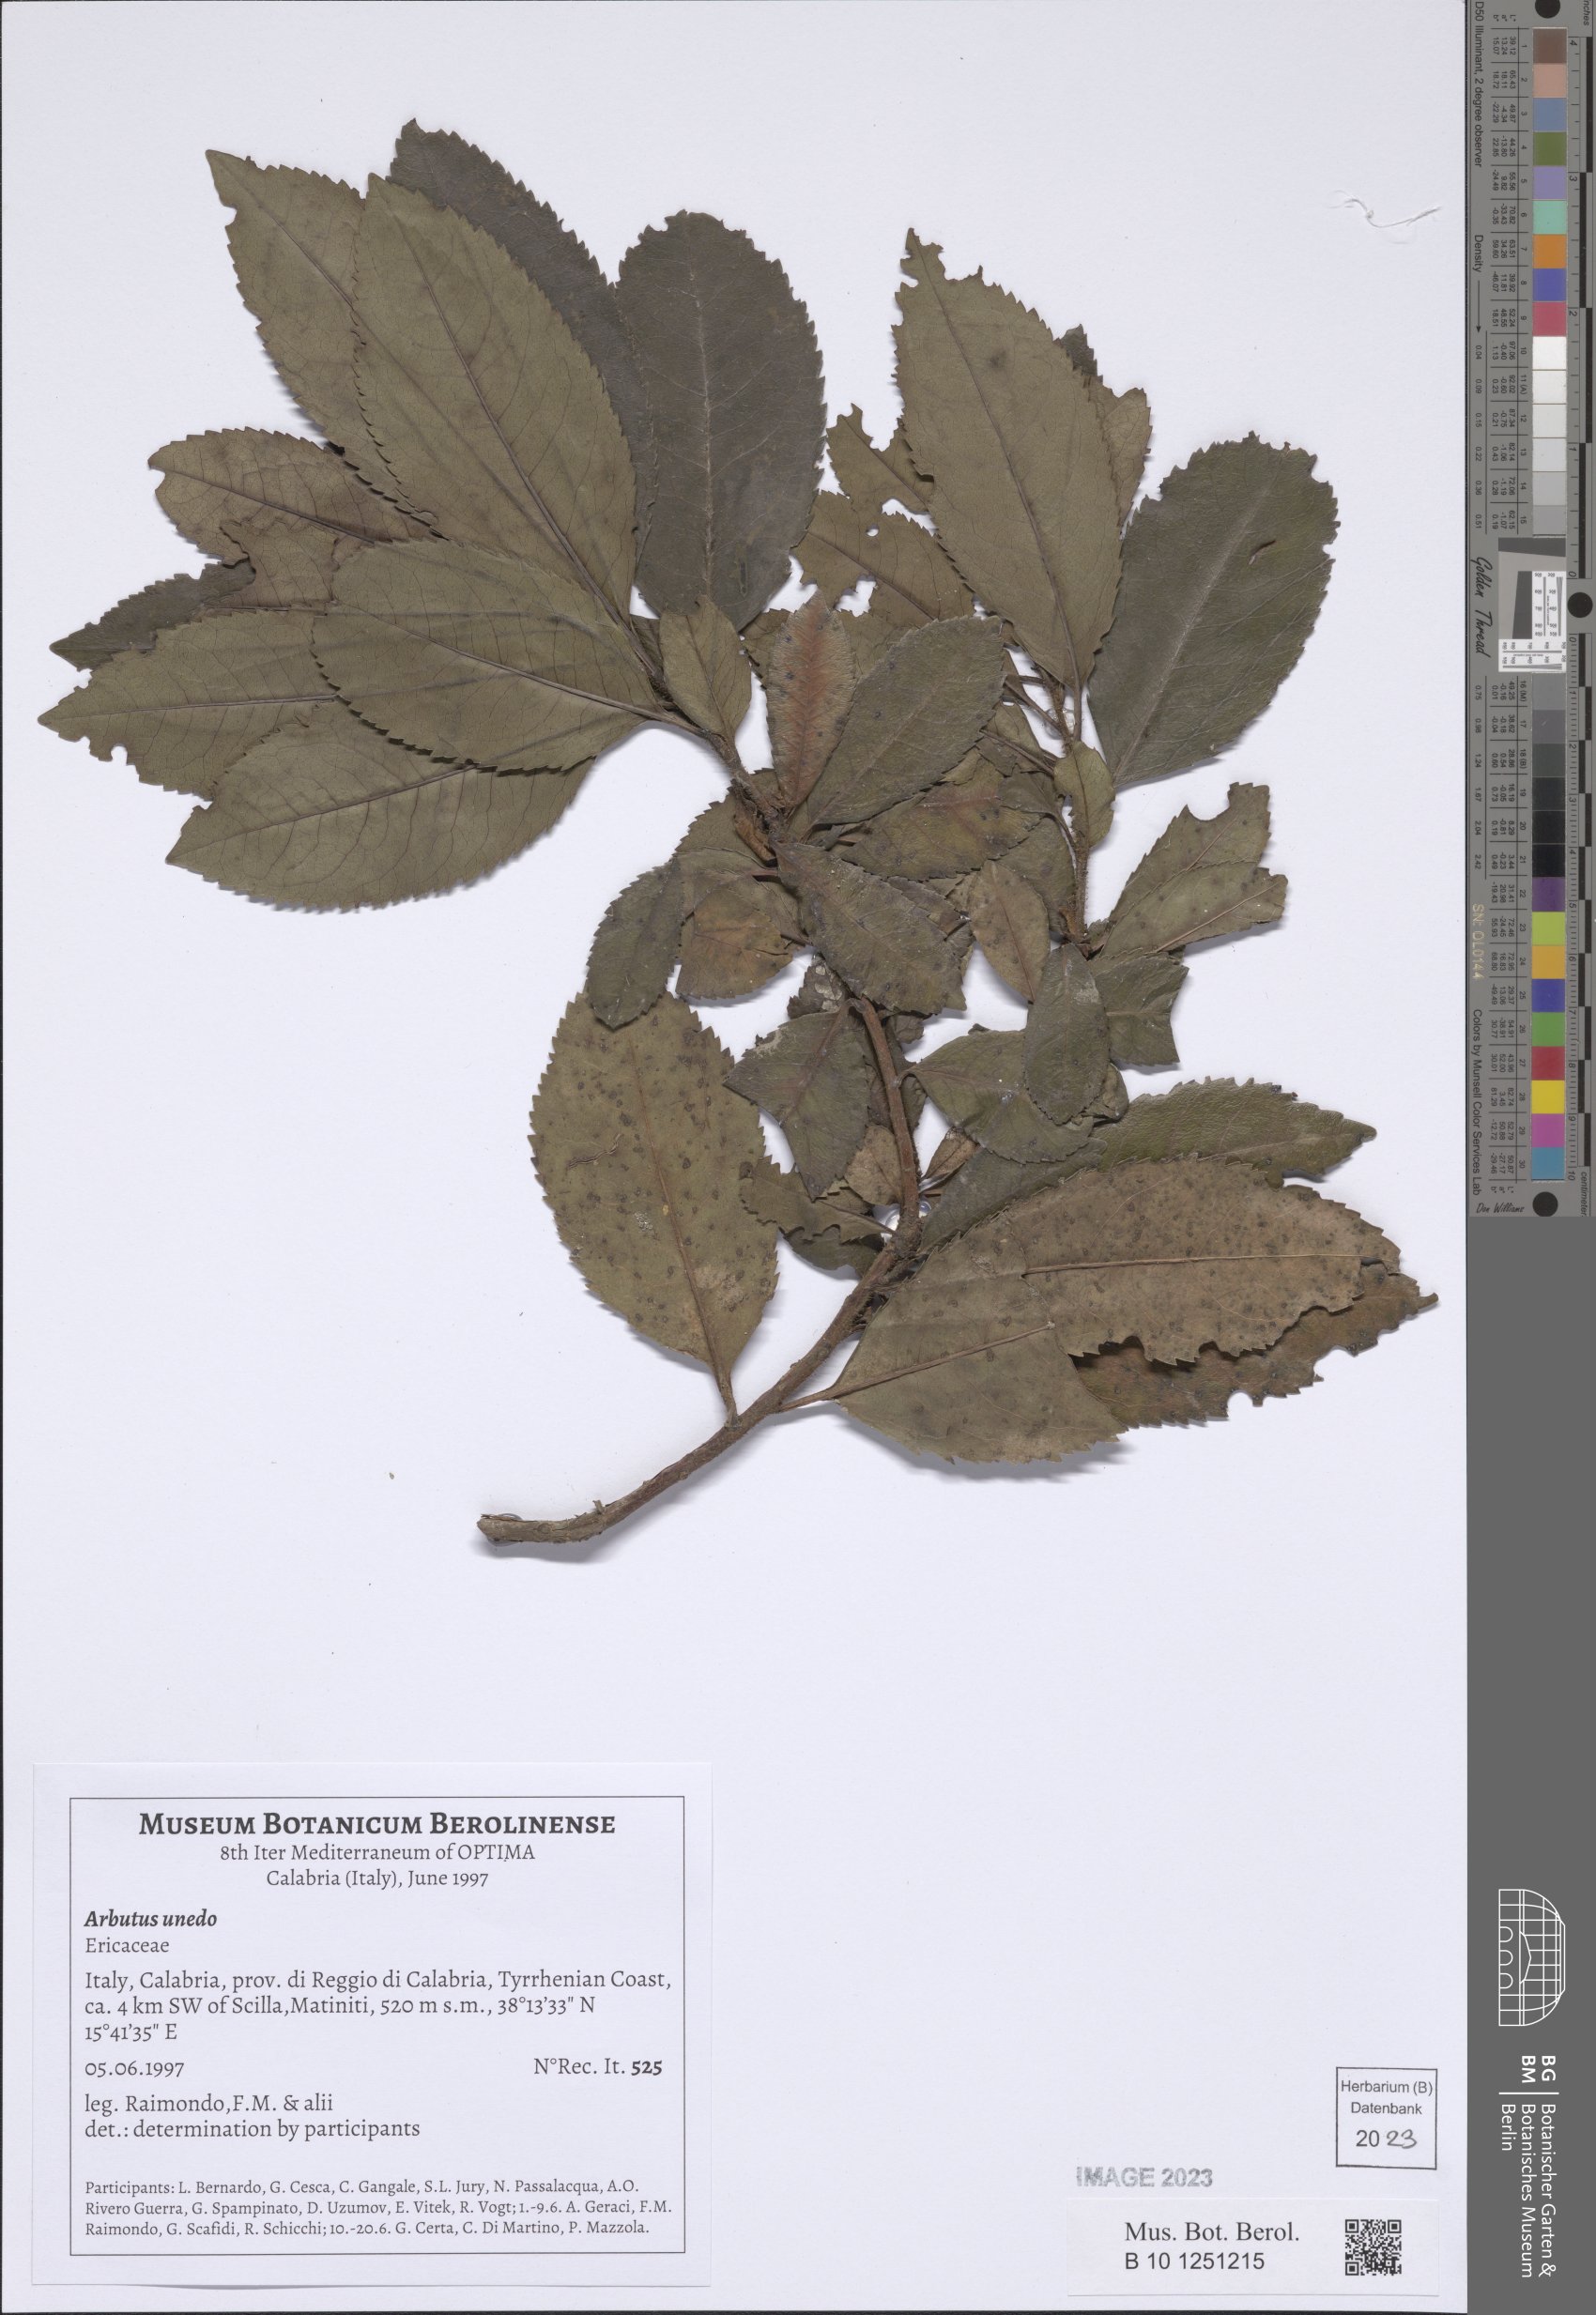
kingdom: Plantae
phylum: Tracheophyta
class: Magnoliopsida
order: Ericales
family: Ericaceae
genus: Arbutus
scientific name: Arbutus unedo
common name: Strawberry-tree
